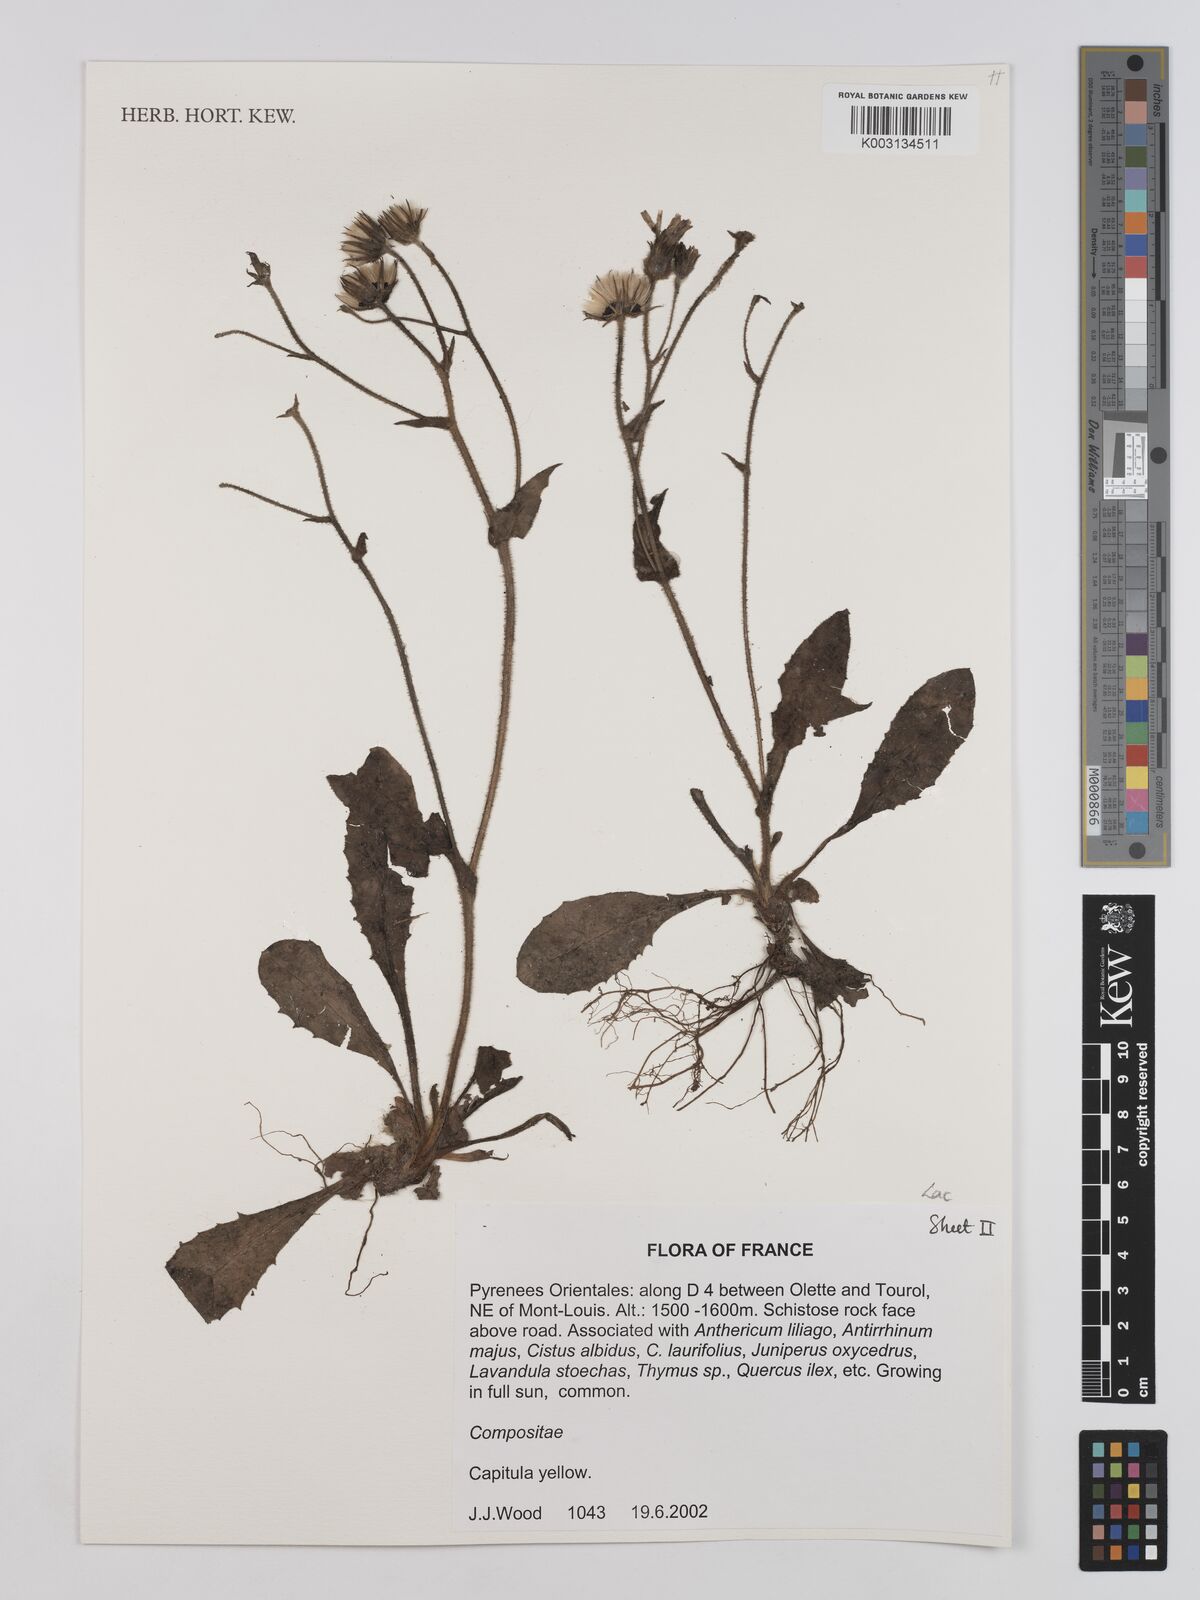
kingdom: Plantae
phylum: Tracheophyta
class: Magnoliopsida
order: Asterales
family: Asteraceae
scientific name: Asteraceae
